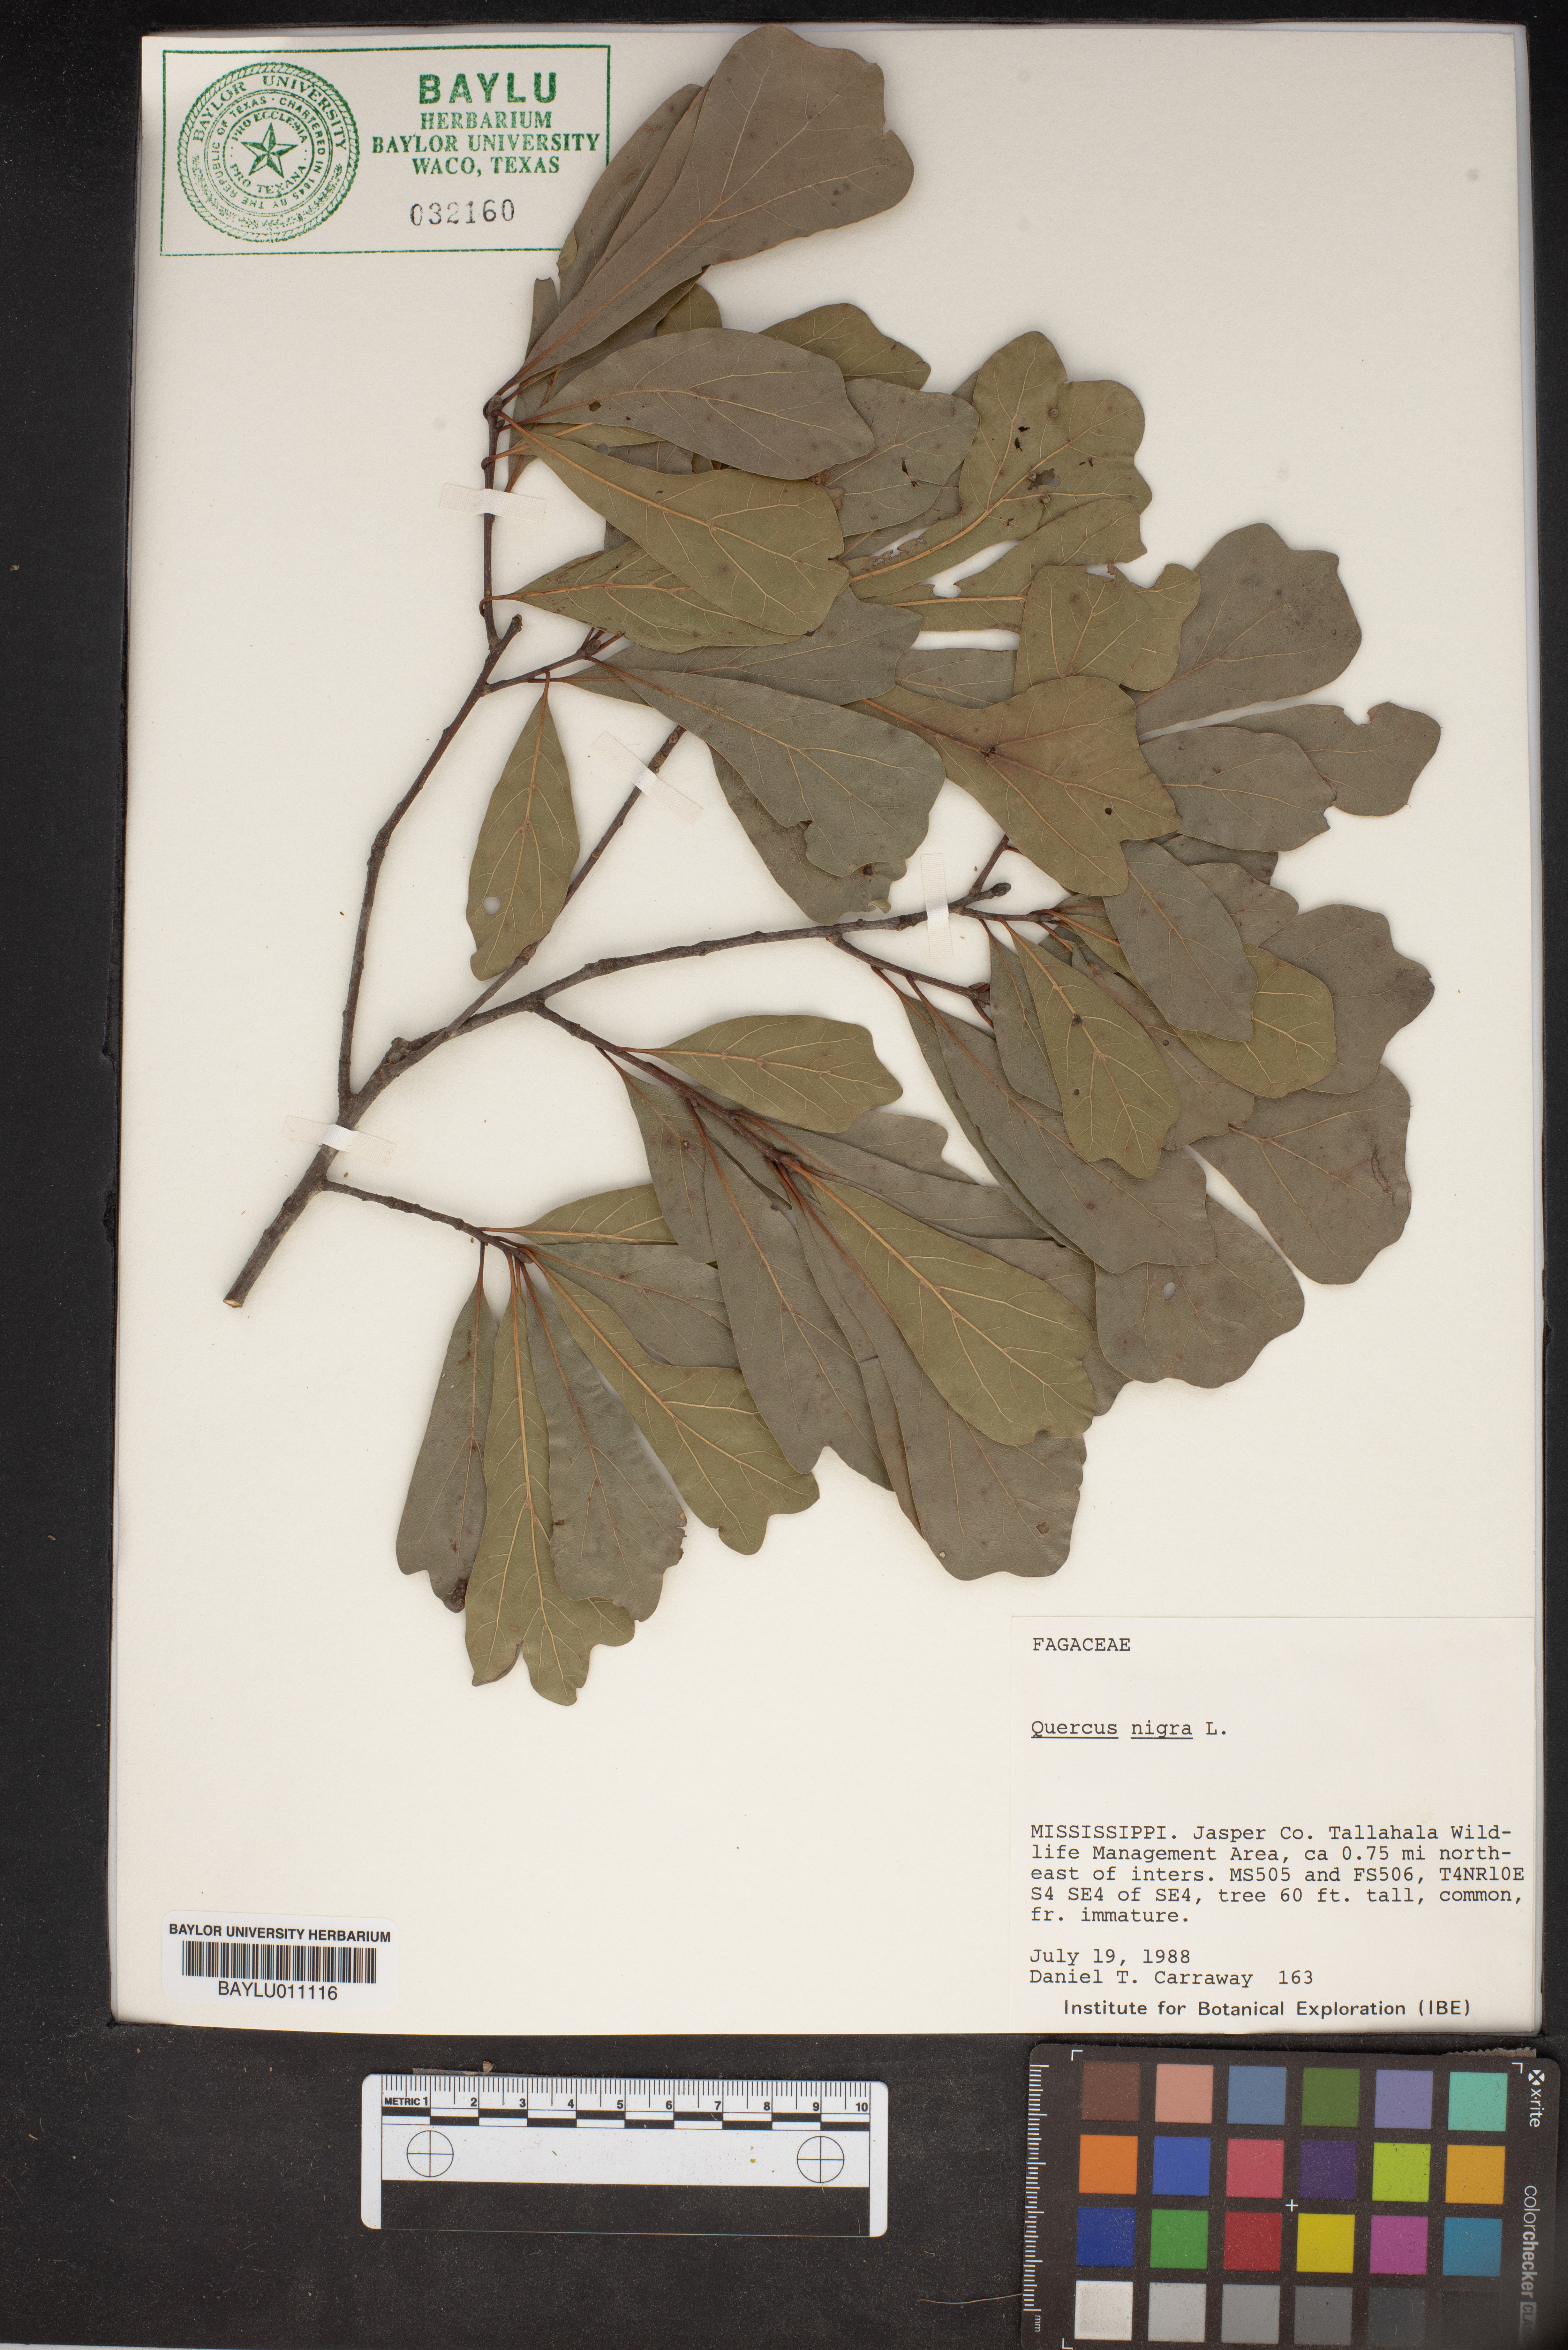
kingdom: Plantae
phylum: Tracheophyta
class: Magnoliopsida
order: Fagales
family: Fagaceae
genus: Quercus
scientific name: Quercus nigra
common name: Water oak
